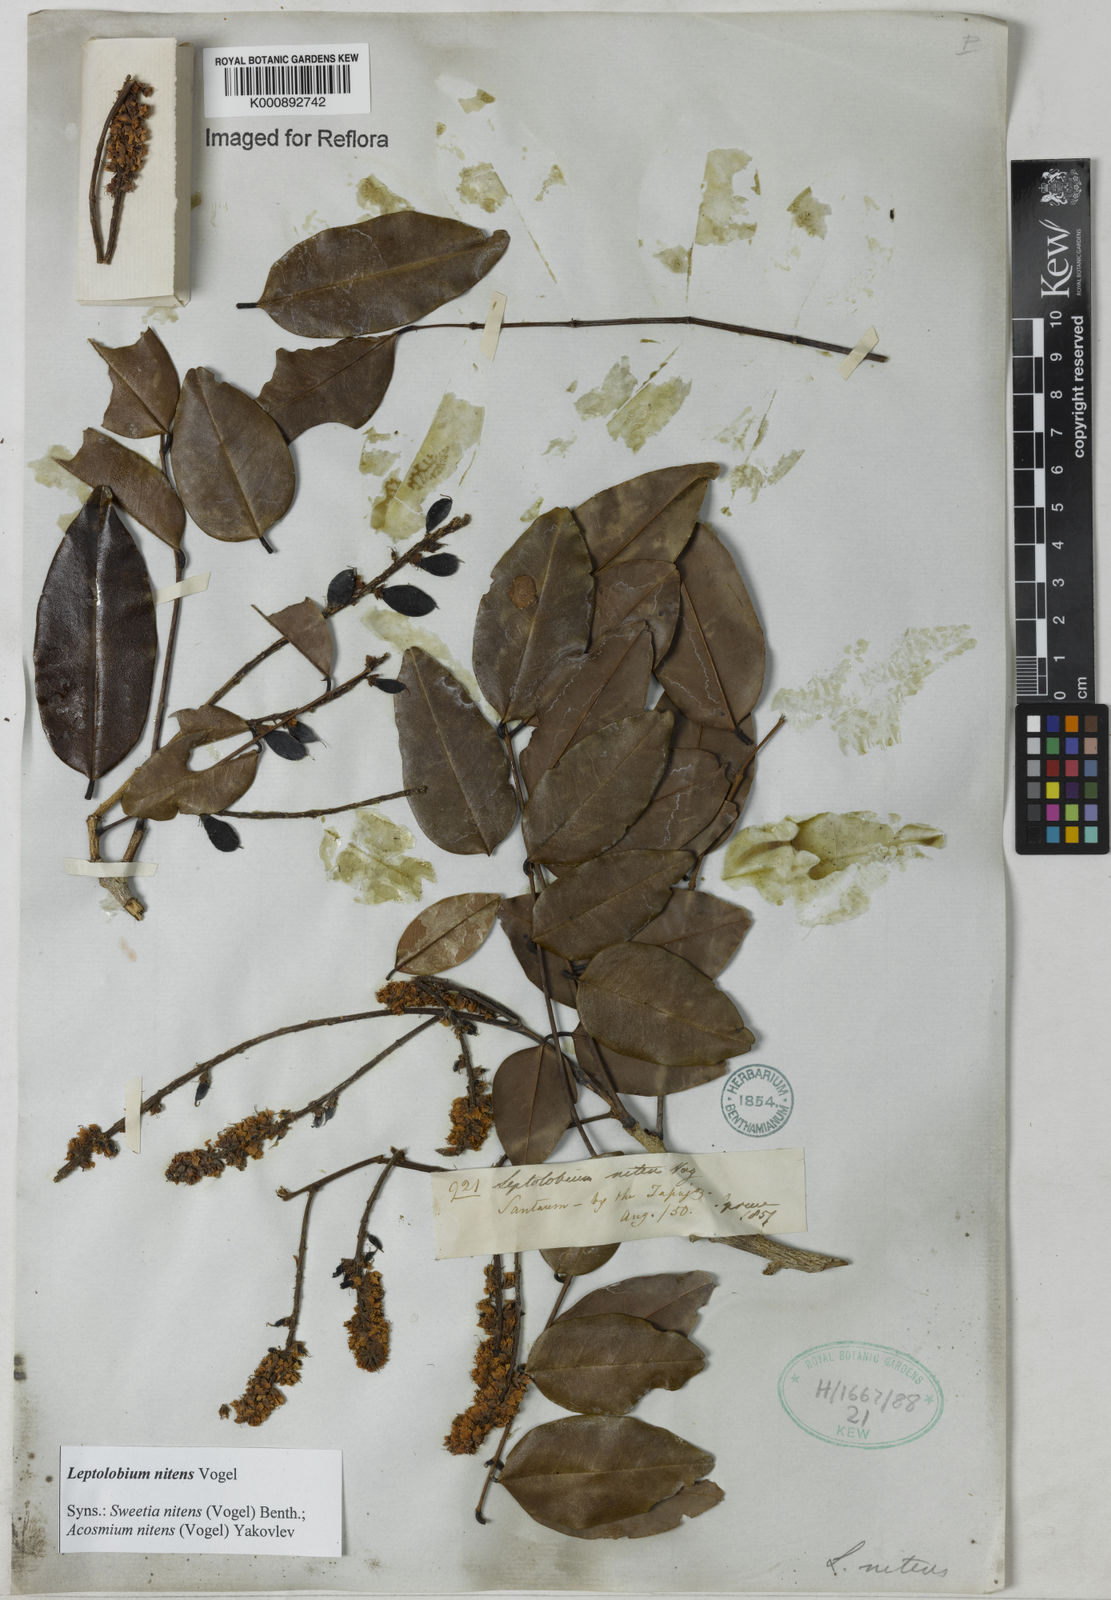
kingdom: Plantae
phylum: Tracheophyta
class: Magnoliopsida
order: Fabales
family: Fabaceae
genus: Leptolobium
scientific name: Leptolobium nitens
